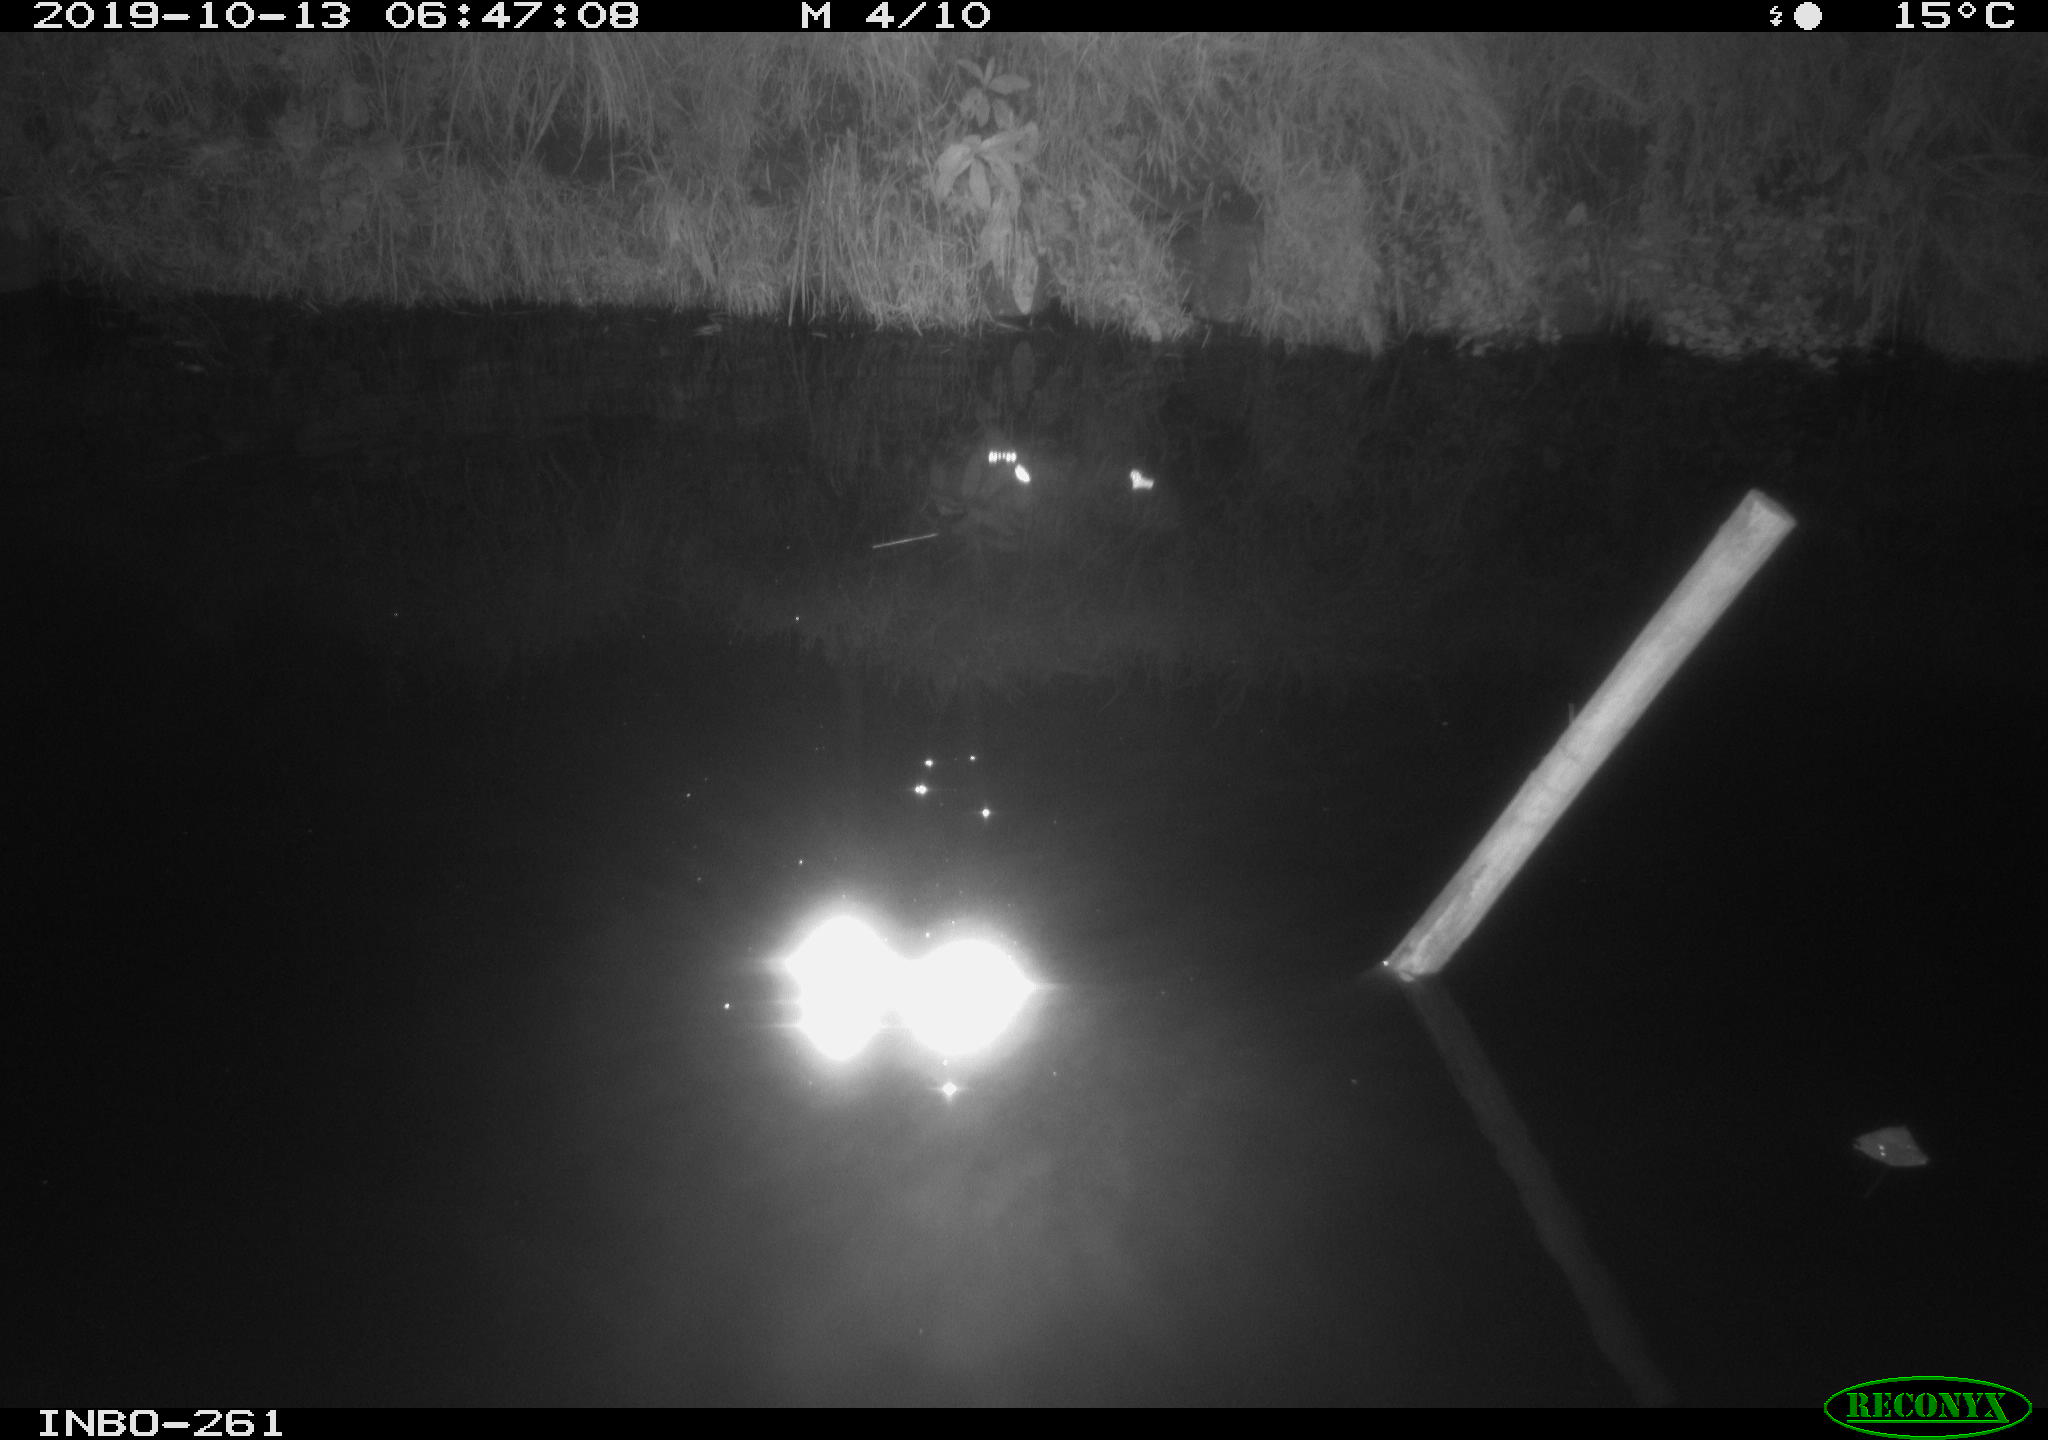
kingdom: Animalia
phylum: Chordata
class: Aves
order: Anseriformes
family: Anatidae
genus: Anas
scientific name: Anas platyrhynchos
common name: Mallard
